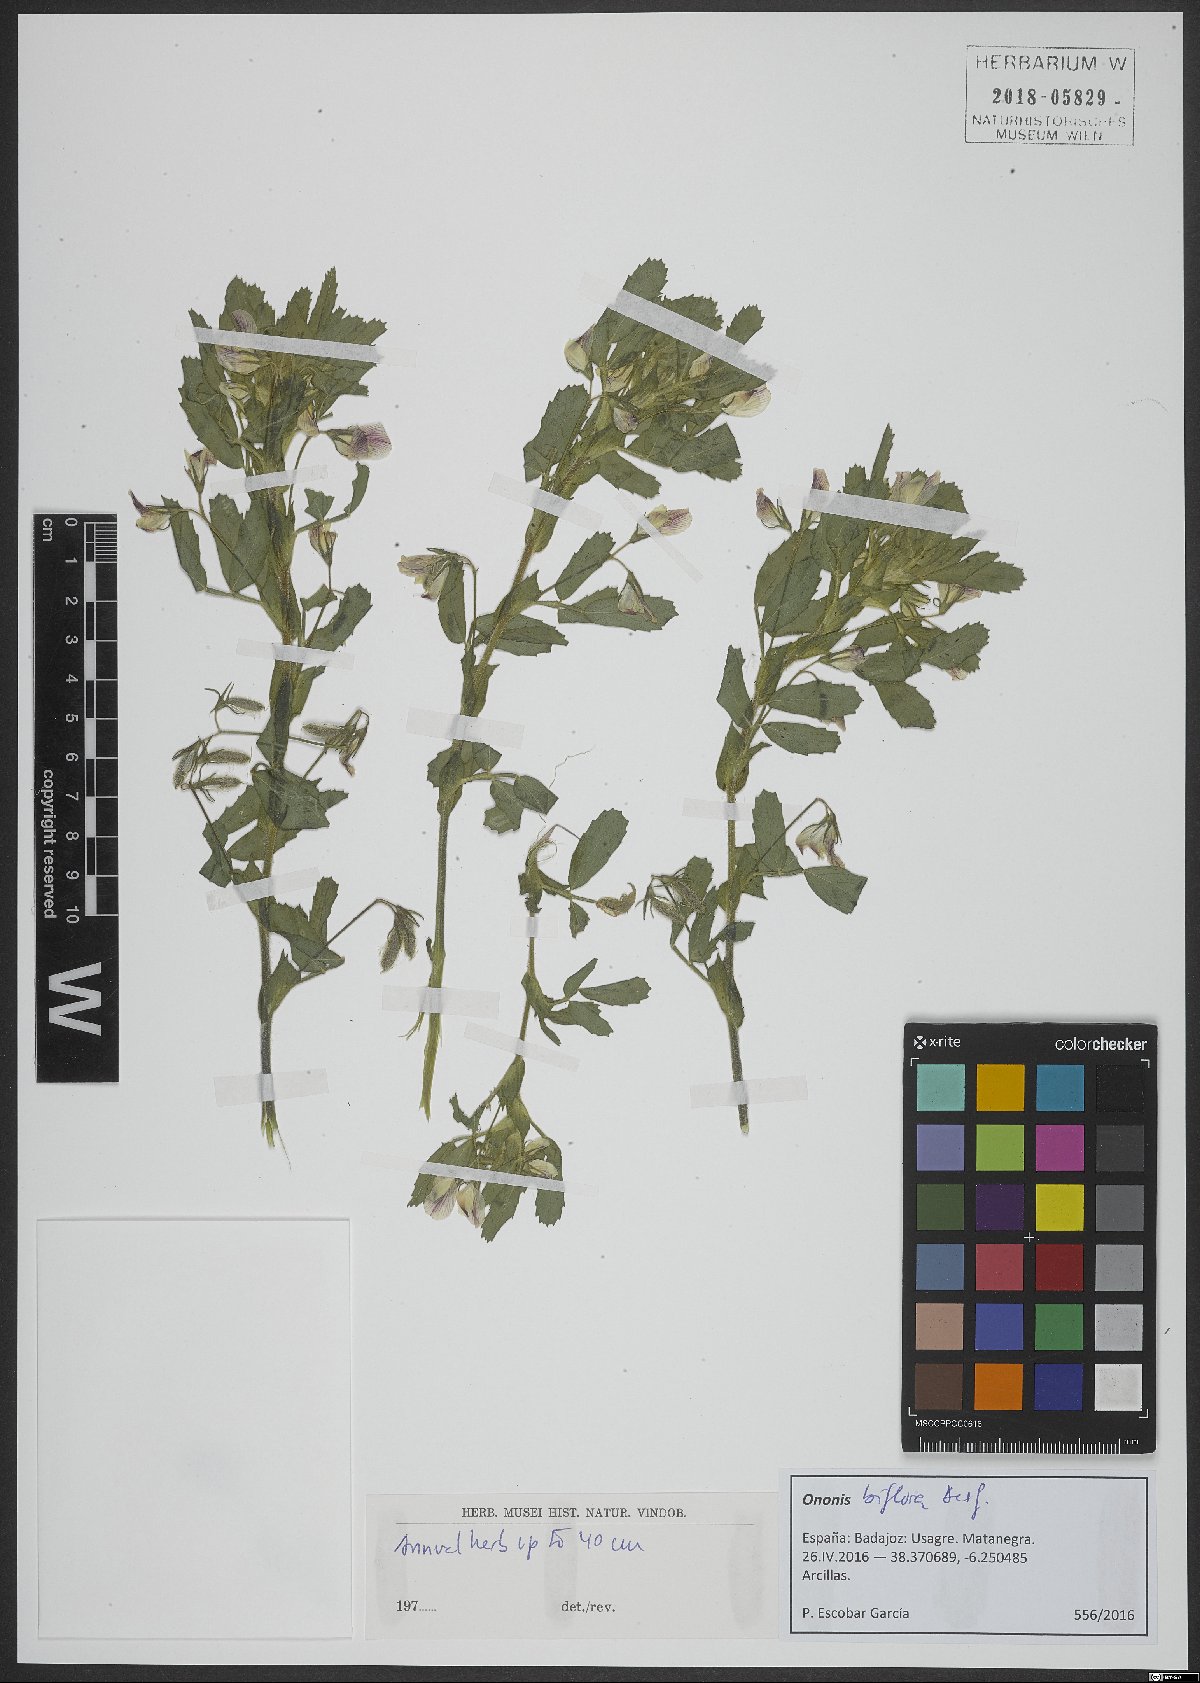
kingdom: Plantae
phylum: Tracheophyta
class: Magnoliopsida
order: Fabales
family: Fabaceae
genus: Ononis
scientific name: Ononis biflora
